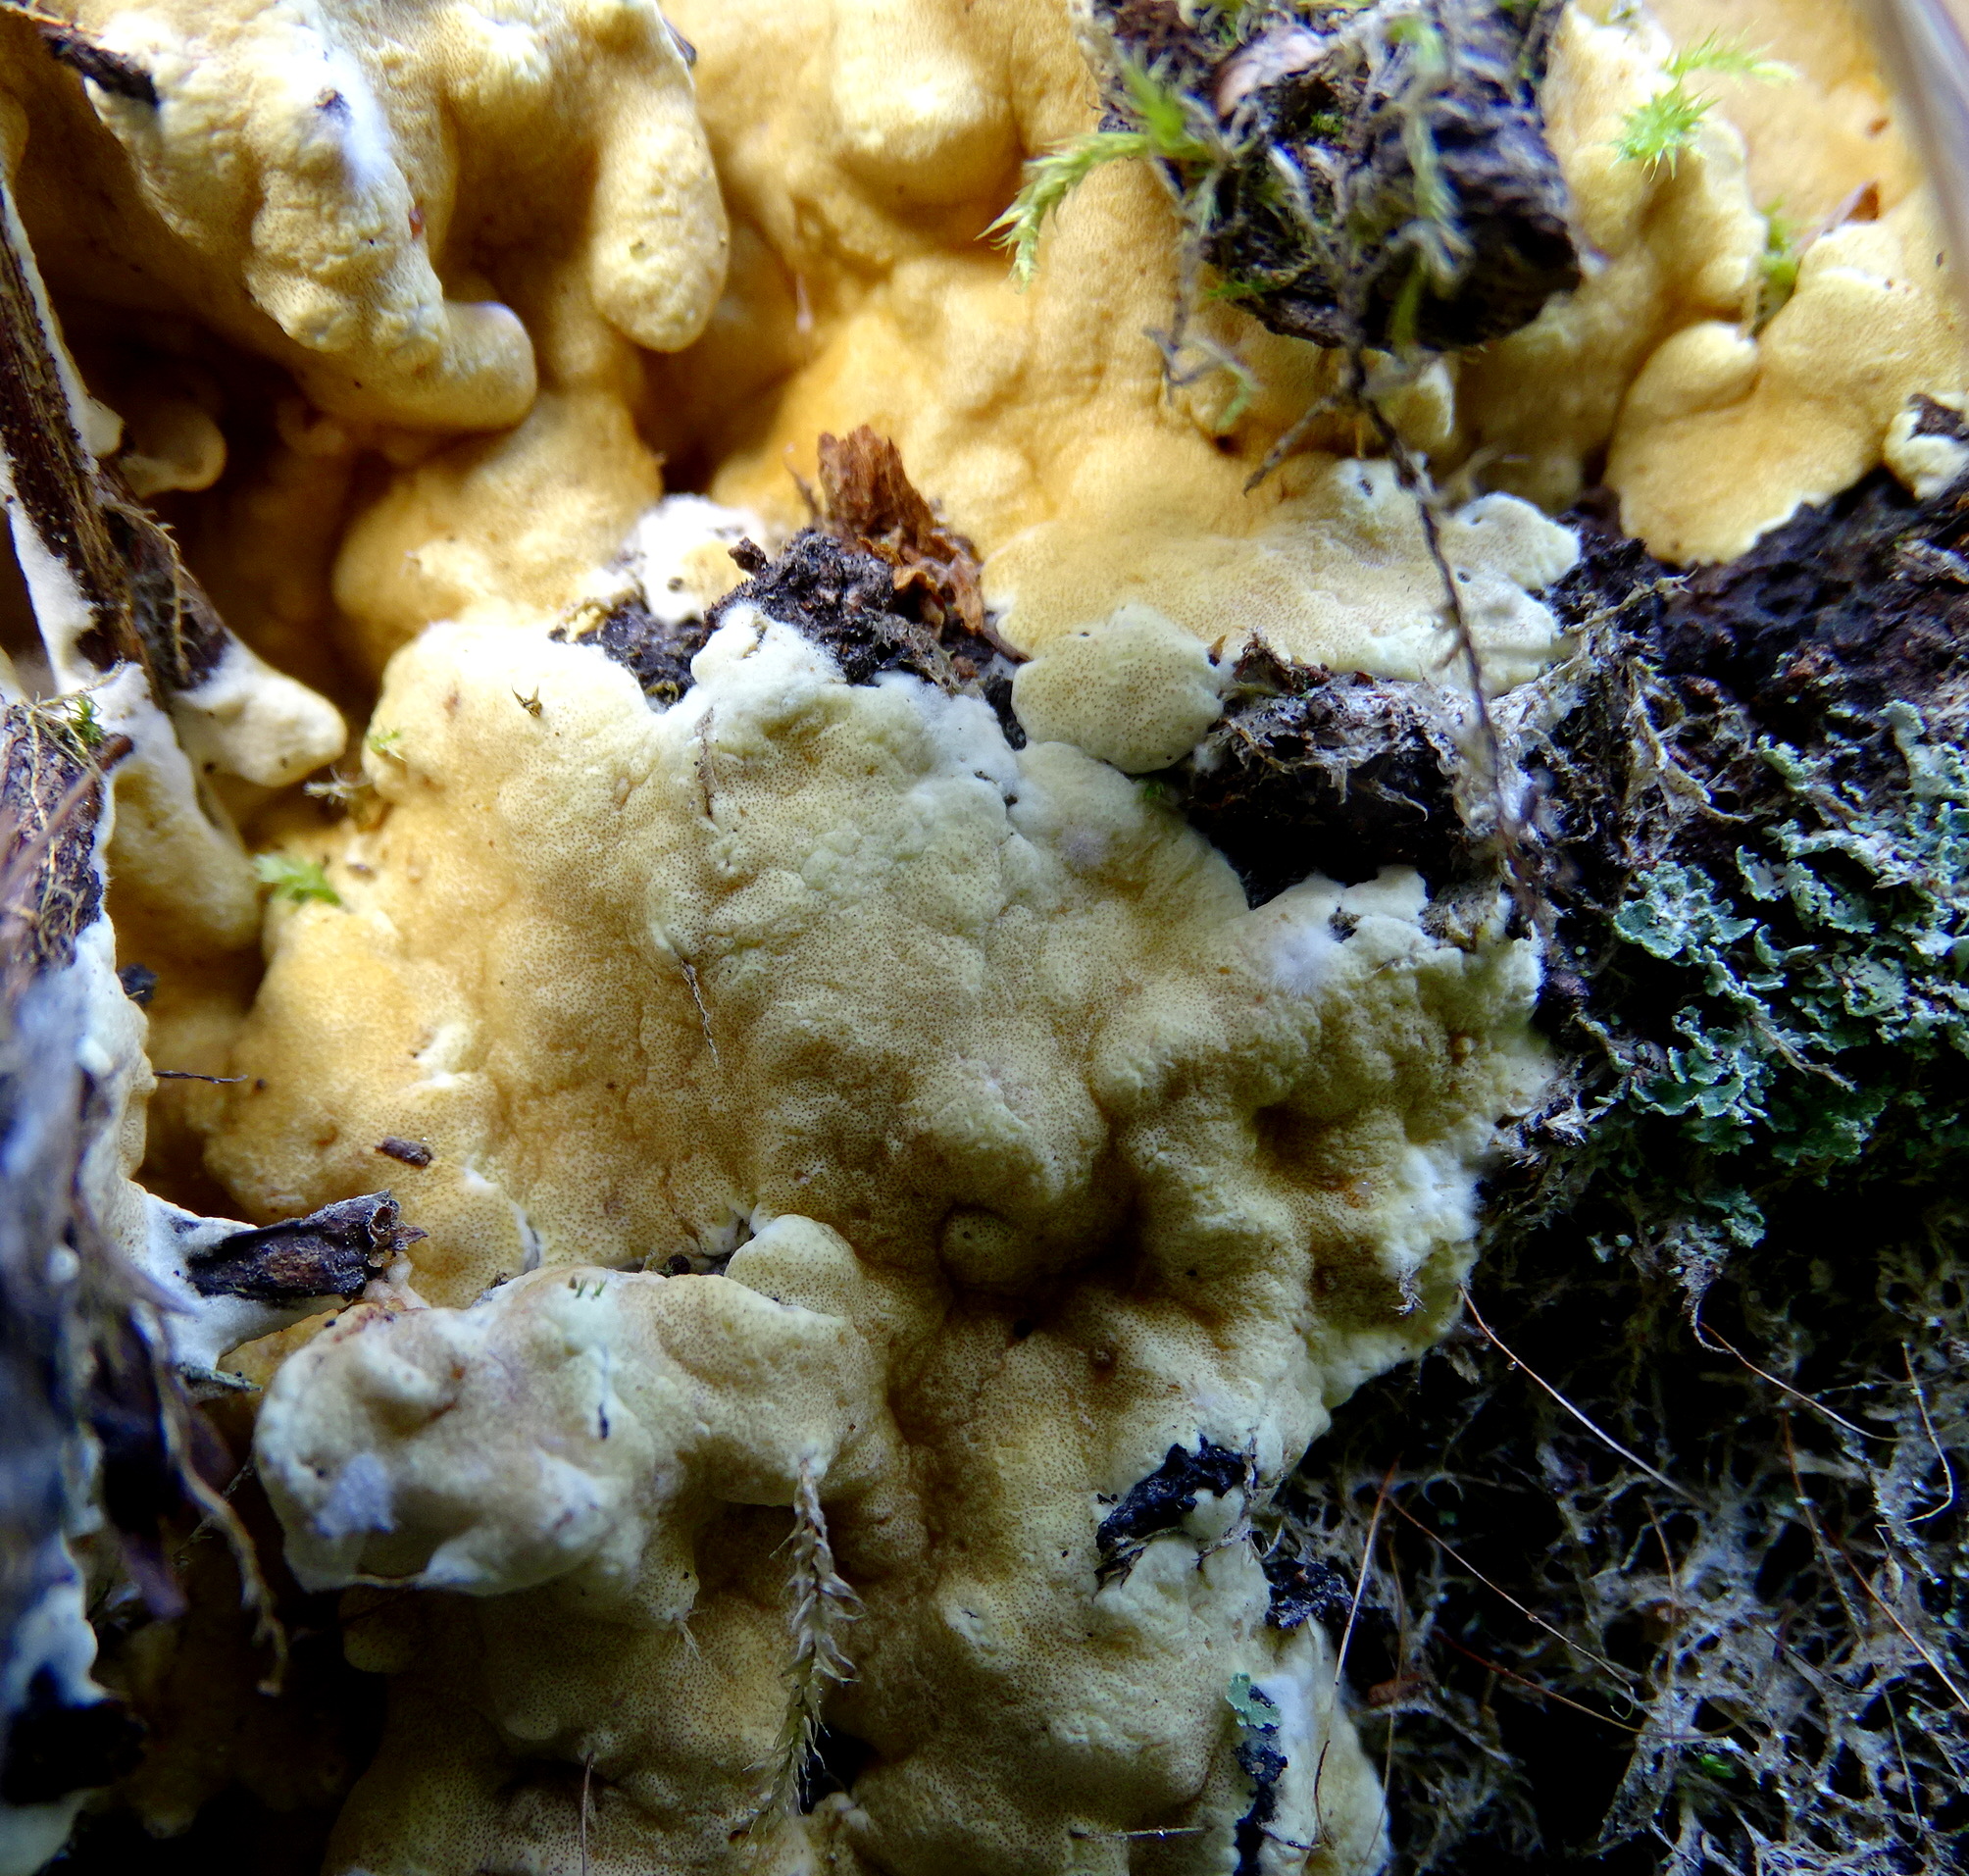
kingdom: Fungi
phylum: Ascomycota
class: Sordariomycetes
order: Hypocreales
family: Hypocreaceae
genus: Trichoderma
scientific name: Trichoderma citrinum
